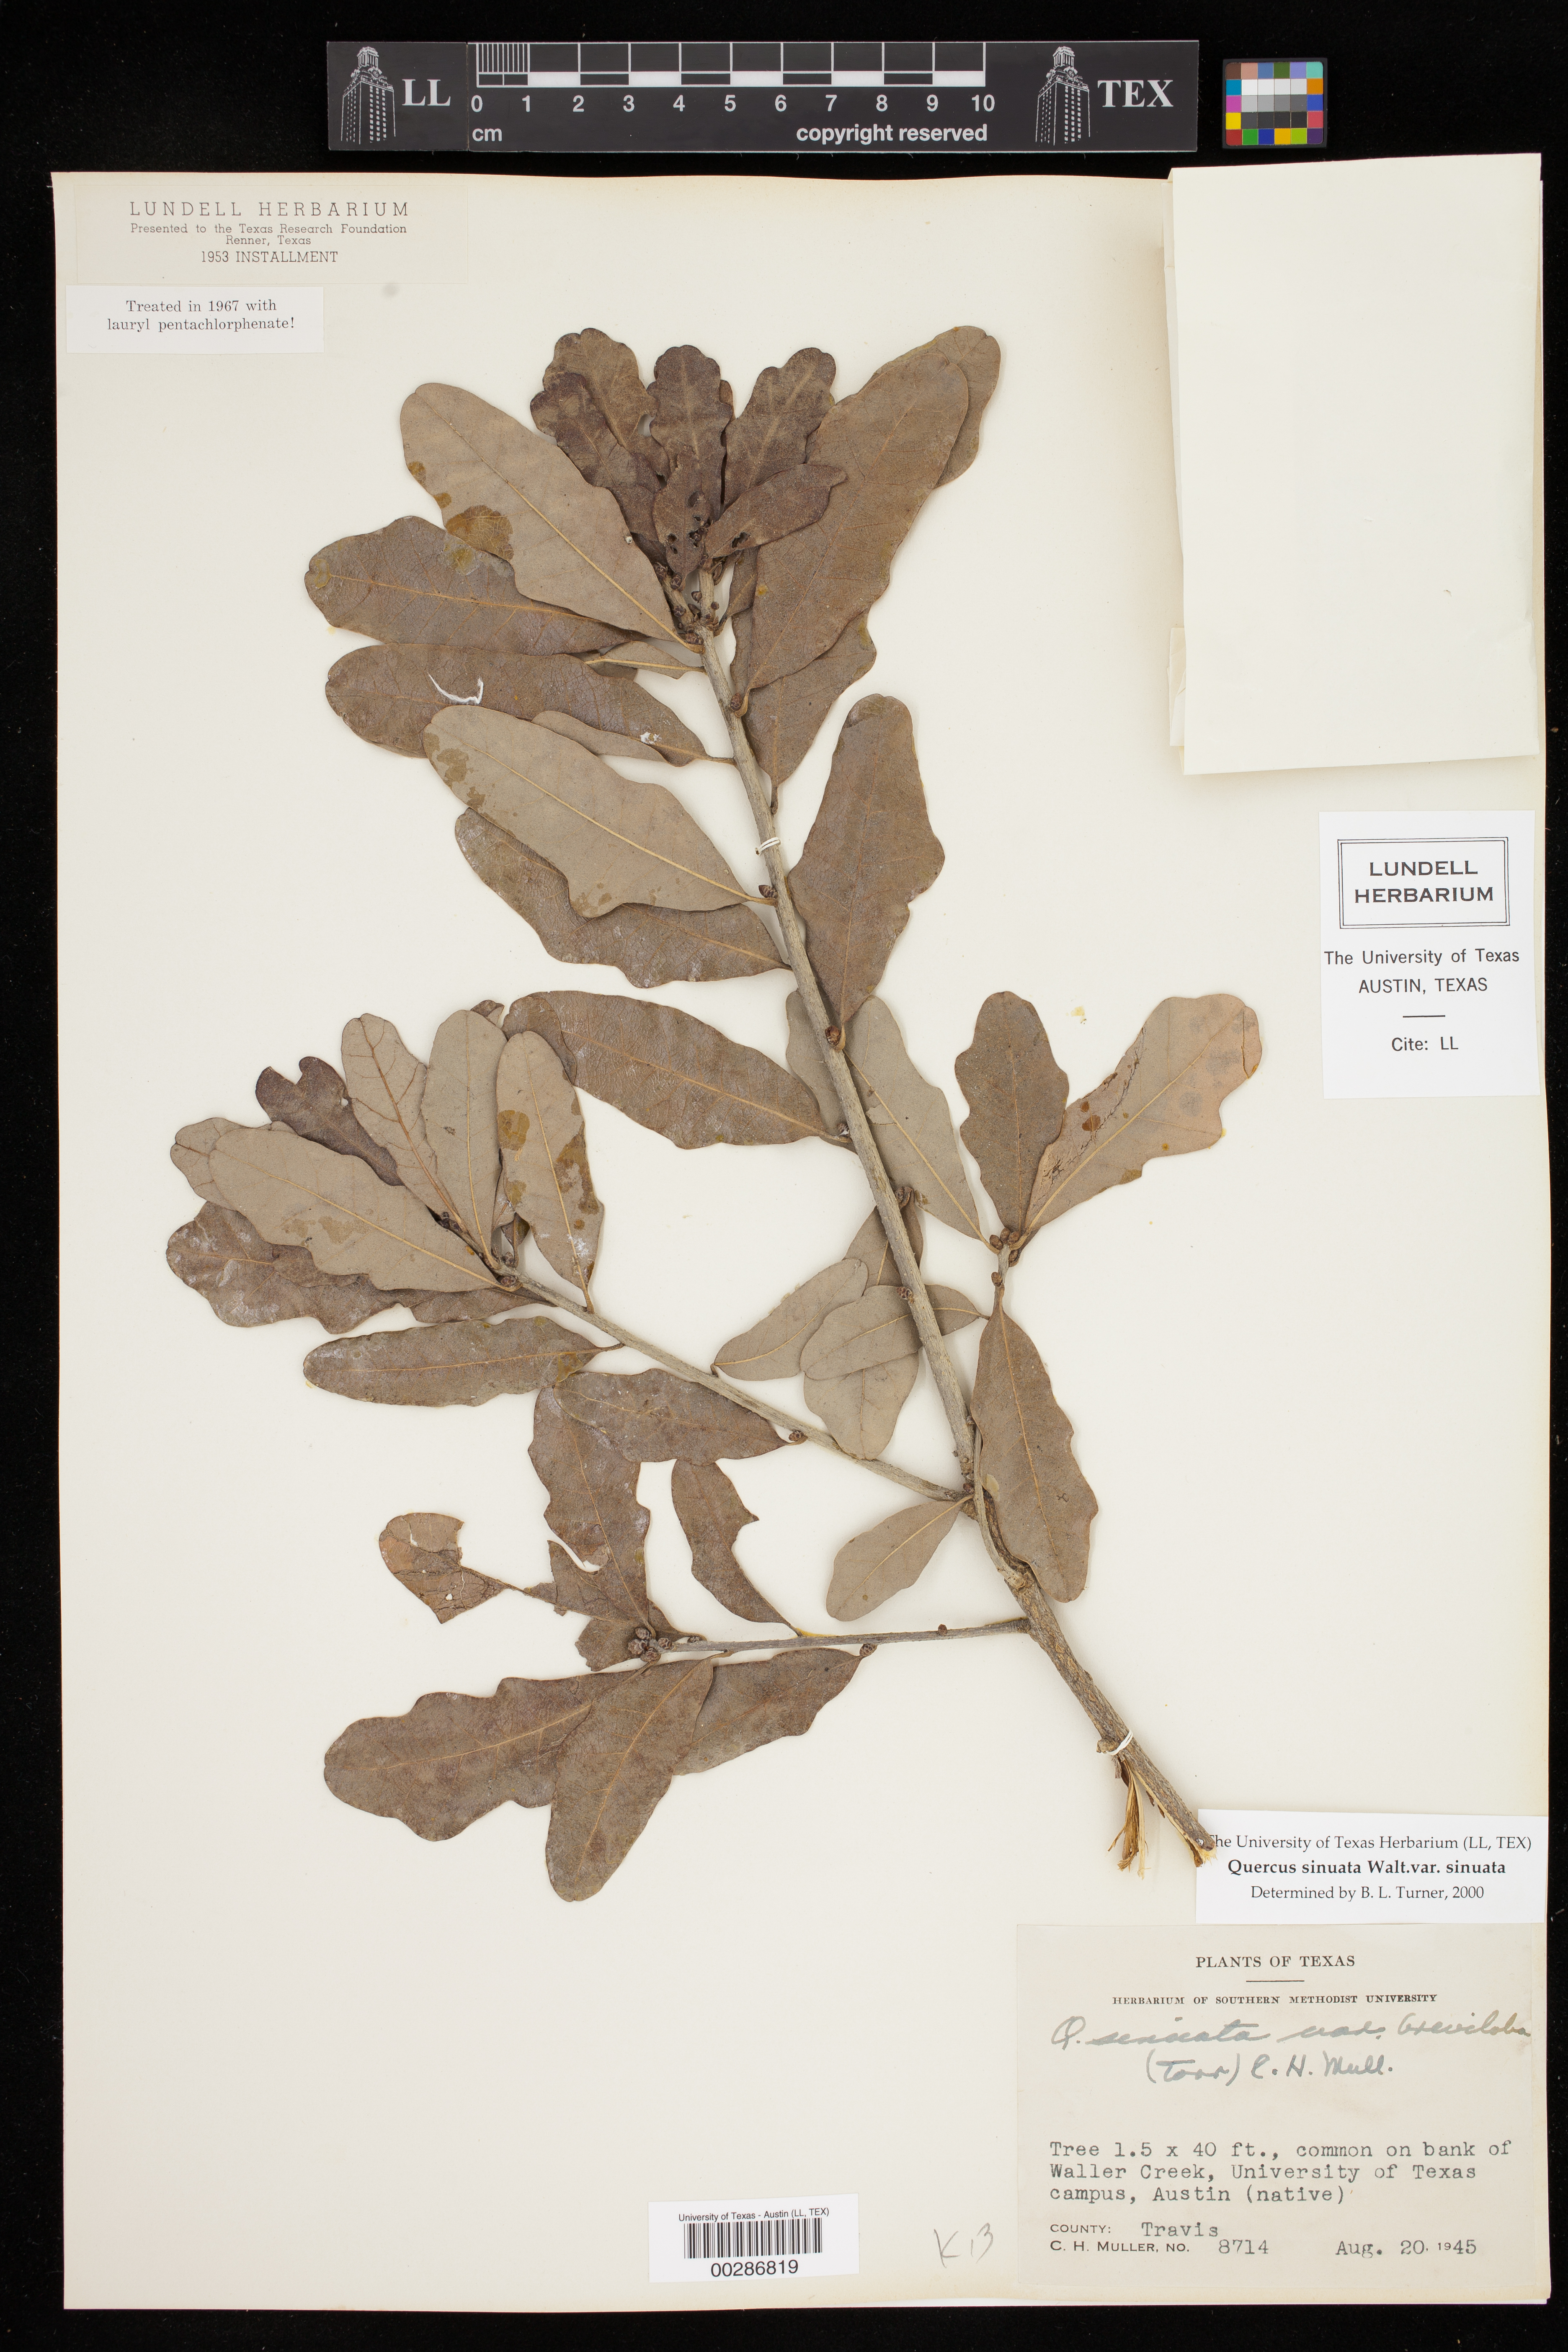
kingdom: Plantae
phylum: Tracheophyta
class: Magnoliopsida
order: Fagales
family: Fagaceae
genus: Quercus
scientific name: Quercus sinuata
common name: Durand oak
